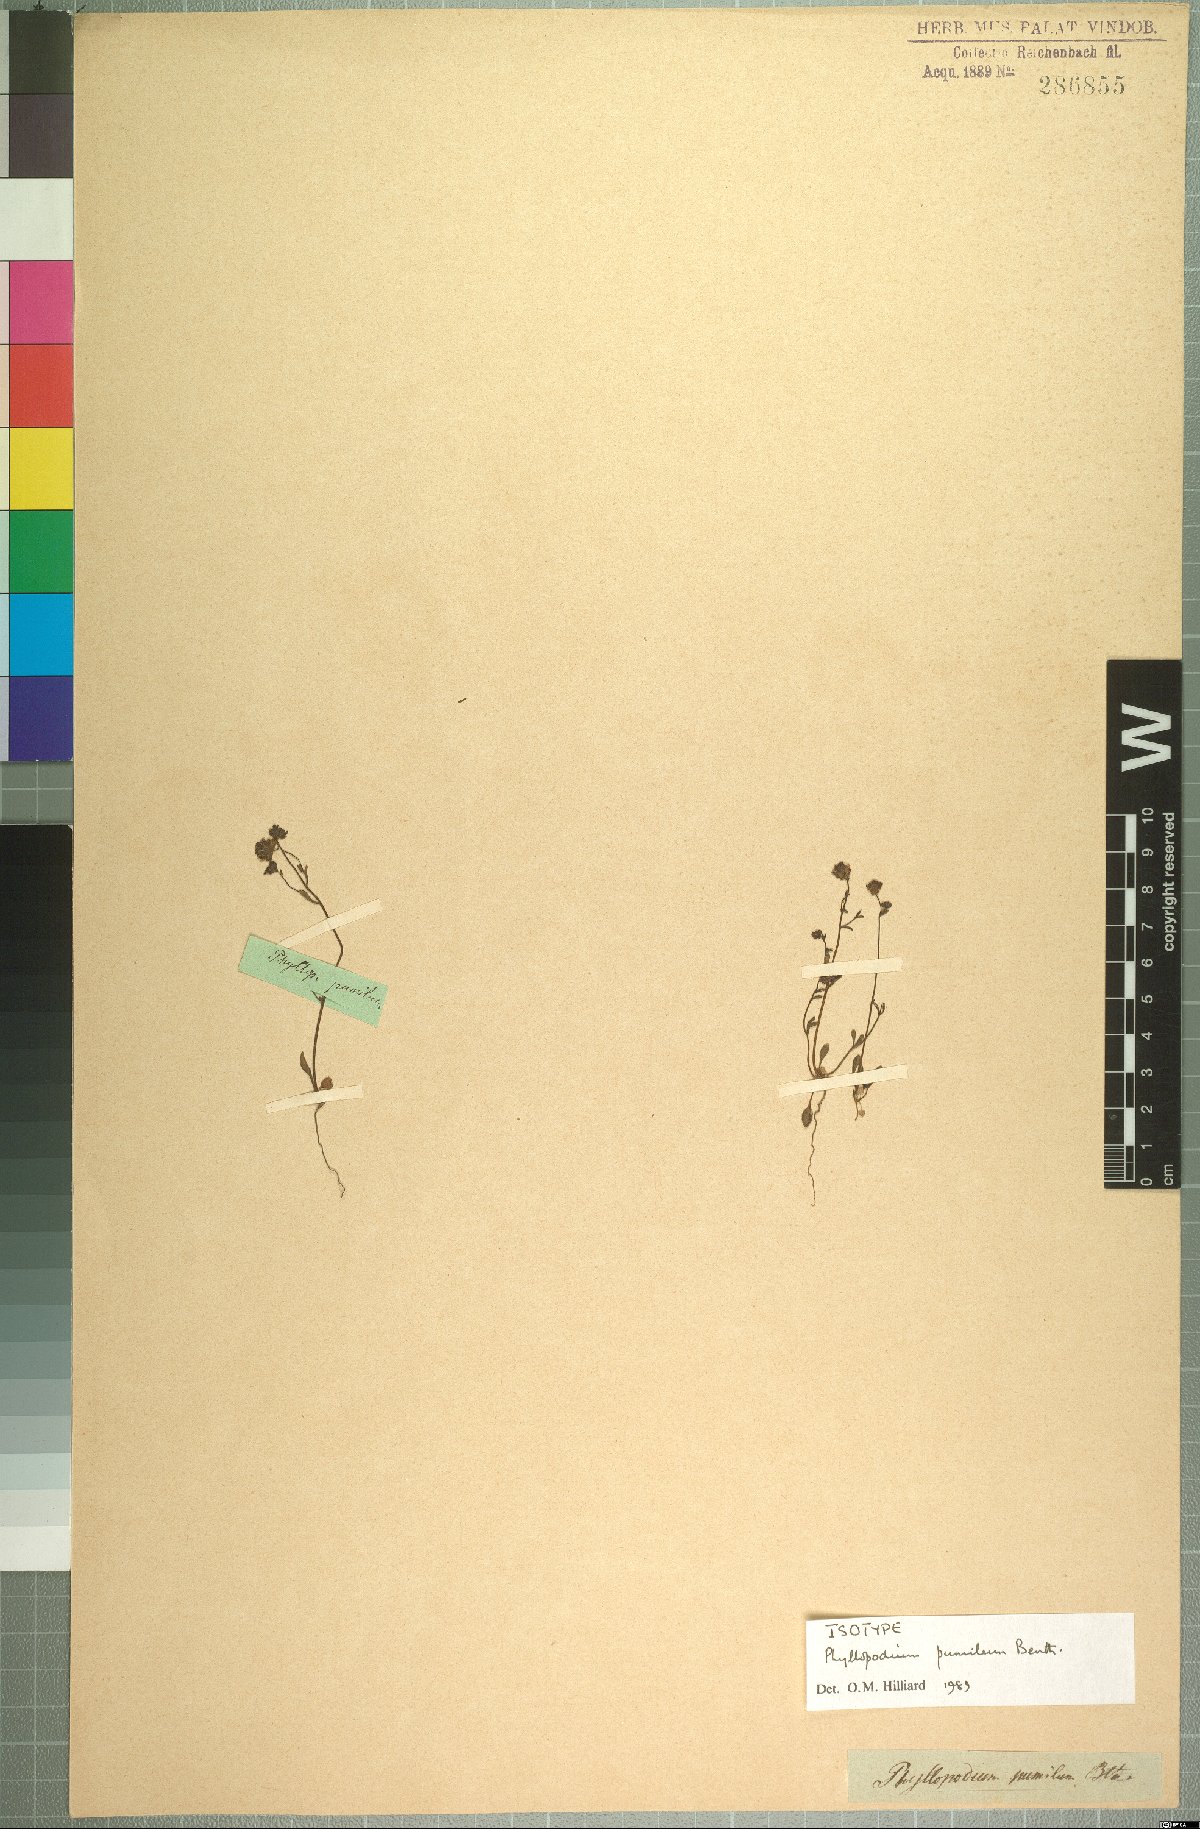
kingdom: Plantae
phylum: Tracheophyta
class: Magnoliopsida
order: Lamiales
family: Scrophulariaceae
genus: Phyllopodium
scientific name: Phyllopodium pumilum
